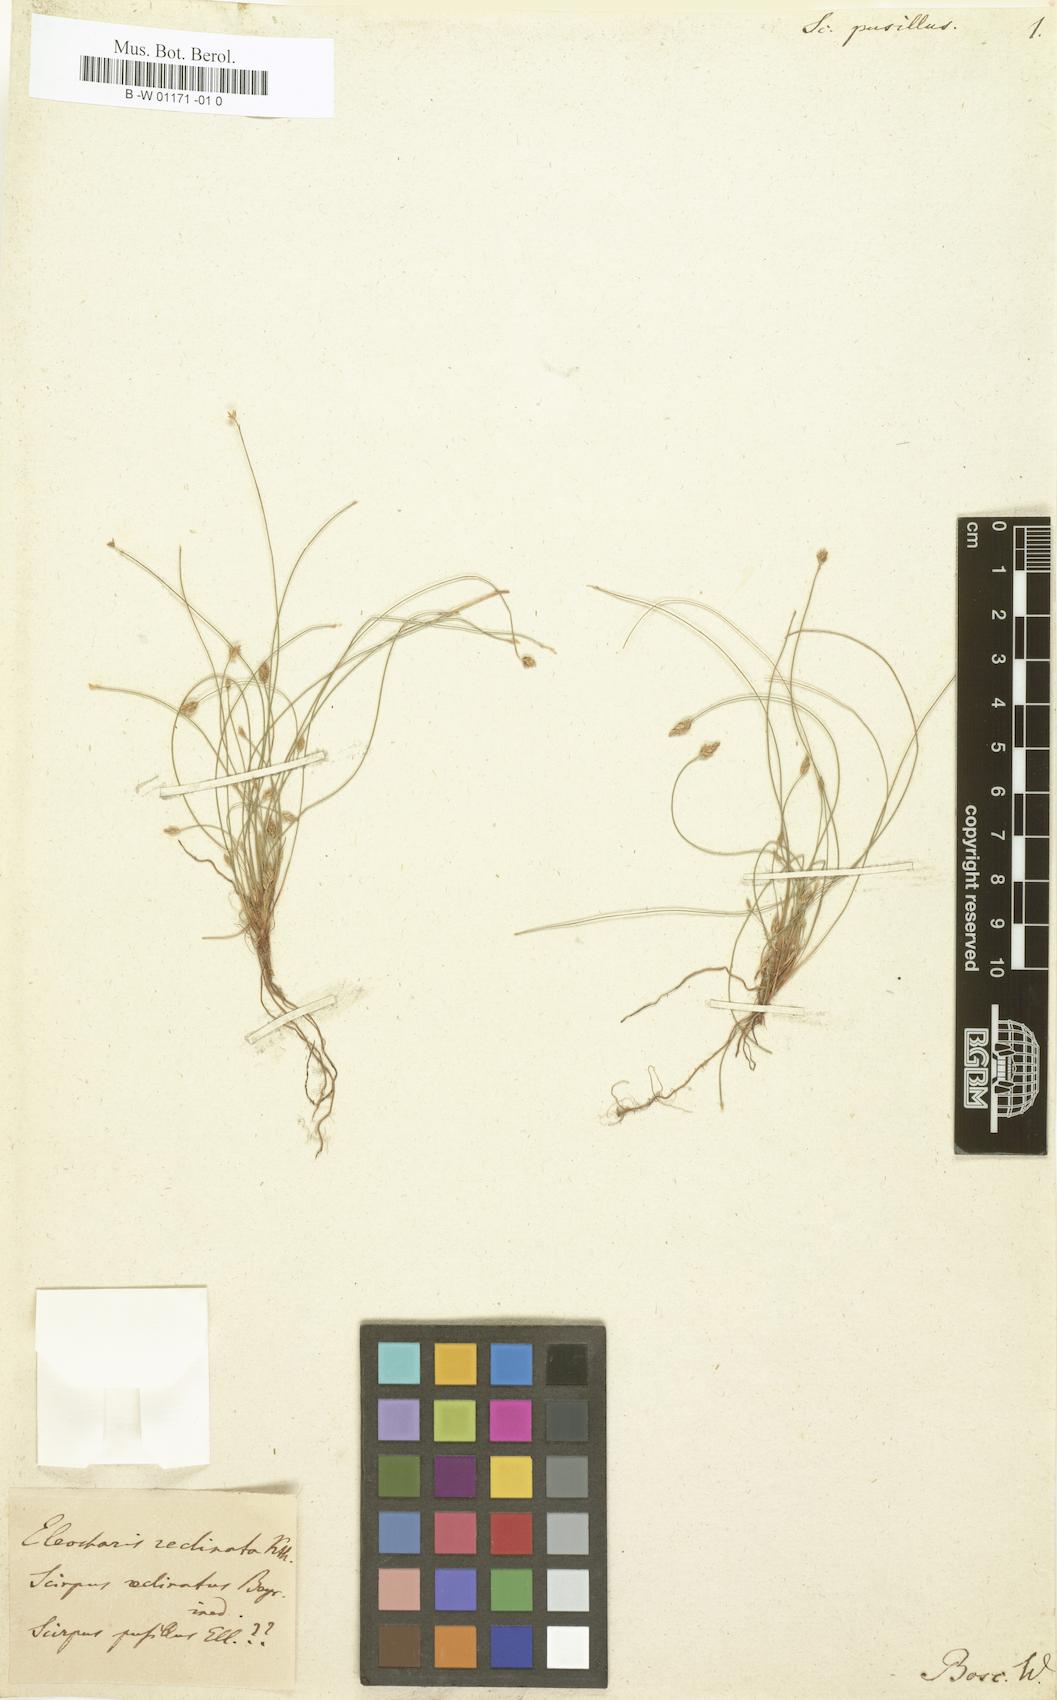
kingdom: Plantae
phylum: Tracheophyta
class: Liliopsida
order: Poales
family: Cyperaceae
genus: Eleocharis
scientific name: Eleocharis
